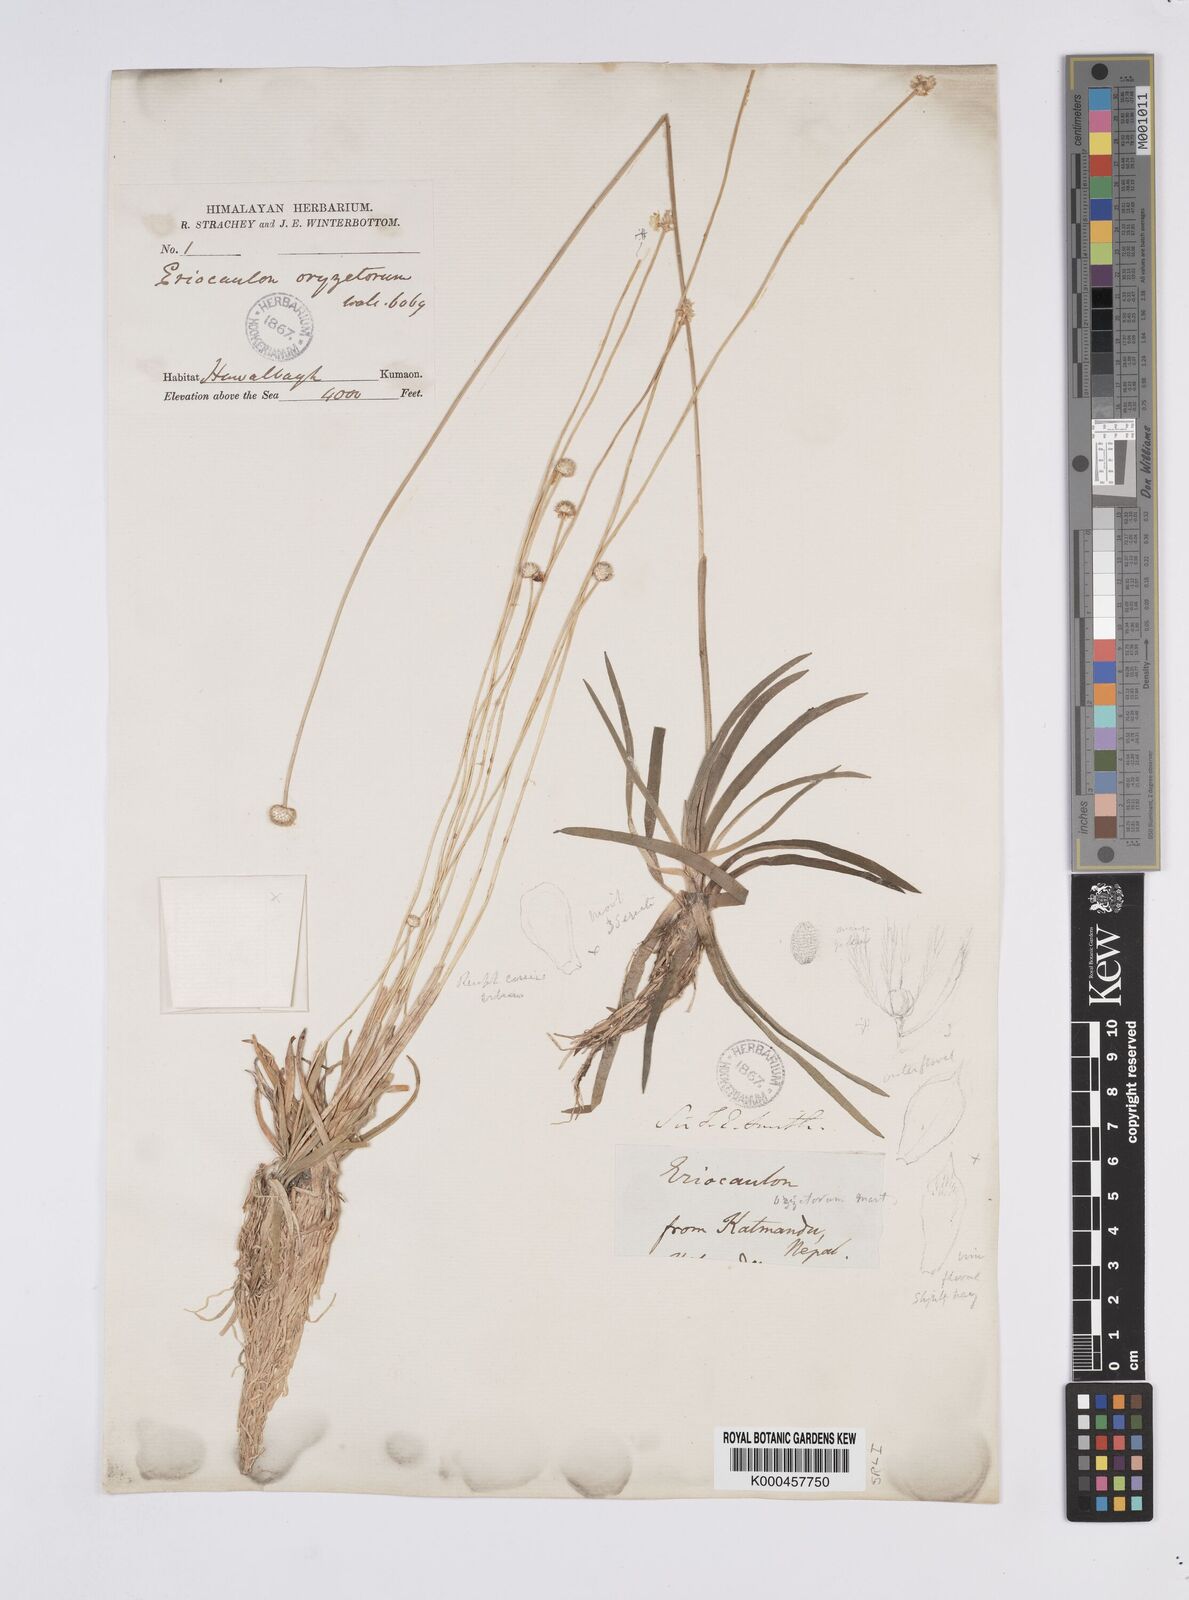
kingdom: Plantae
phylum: Tracheophyta
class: Liliopsida
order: Poales
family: Eriocaulaceae
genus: Eriocaulon
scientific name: Eriocaulon oryzetorum
